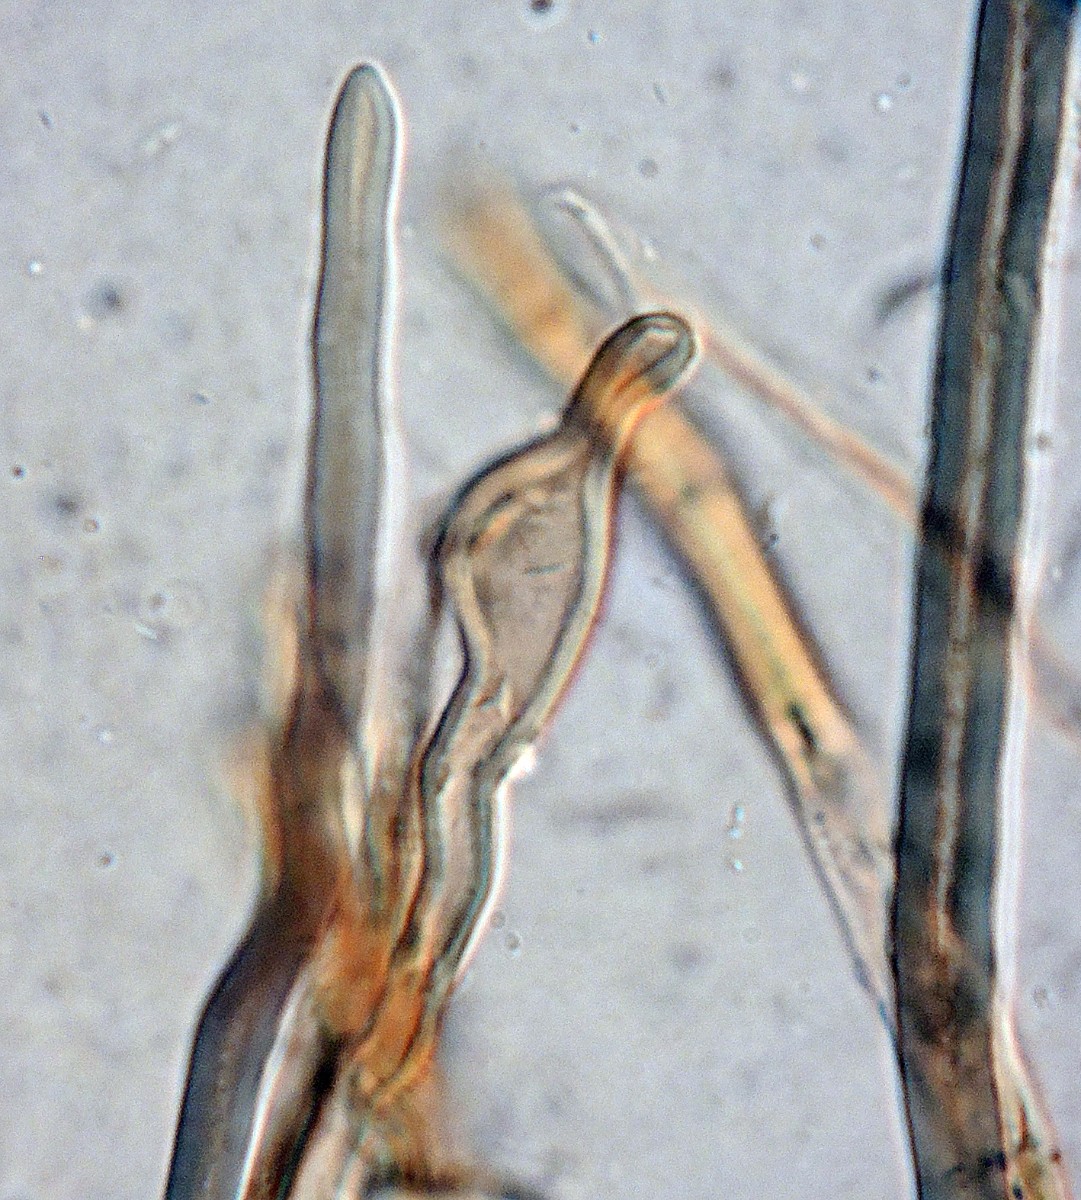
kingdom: Fungi
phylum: Basidiomycota
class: Agaricomycetes
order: Agaricales
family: Marasmiaceae
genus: Crinipellis
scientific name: Crinipellis pedemontana
